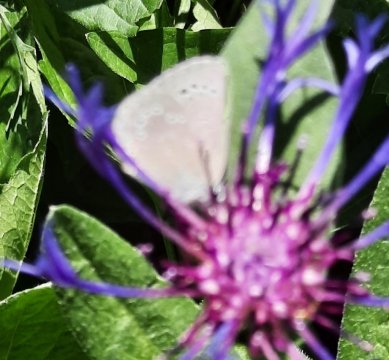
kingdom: Animalia
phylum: Arthropoda
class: Insecta
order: Lepidoptera
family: Lycaenidae
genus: Glaucopsyche
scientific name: Glaucopsyche lygdamus
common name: Silvery Blue
